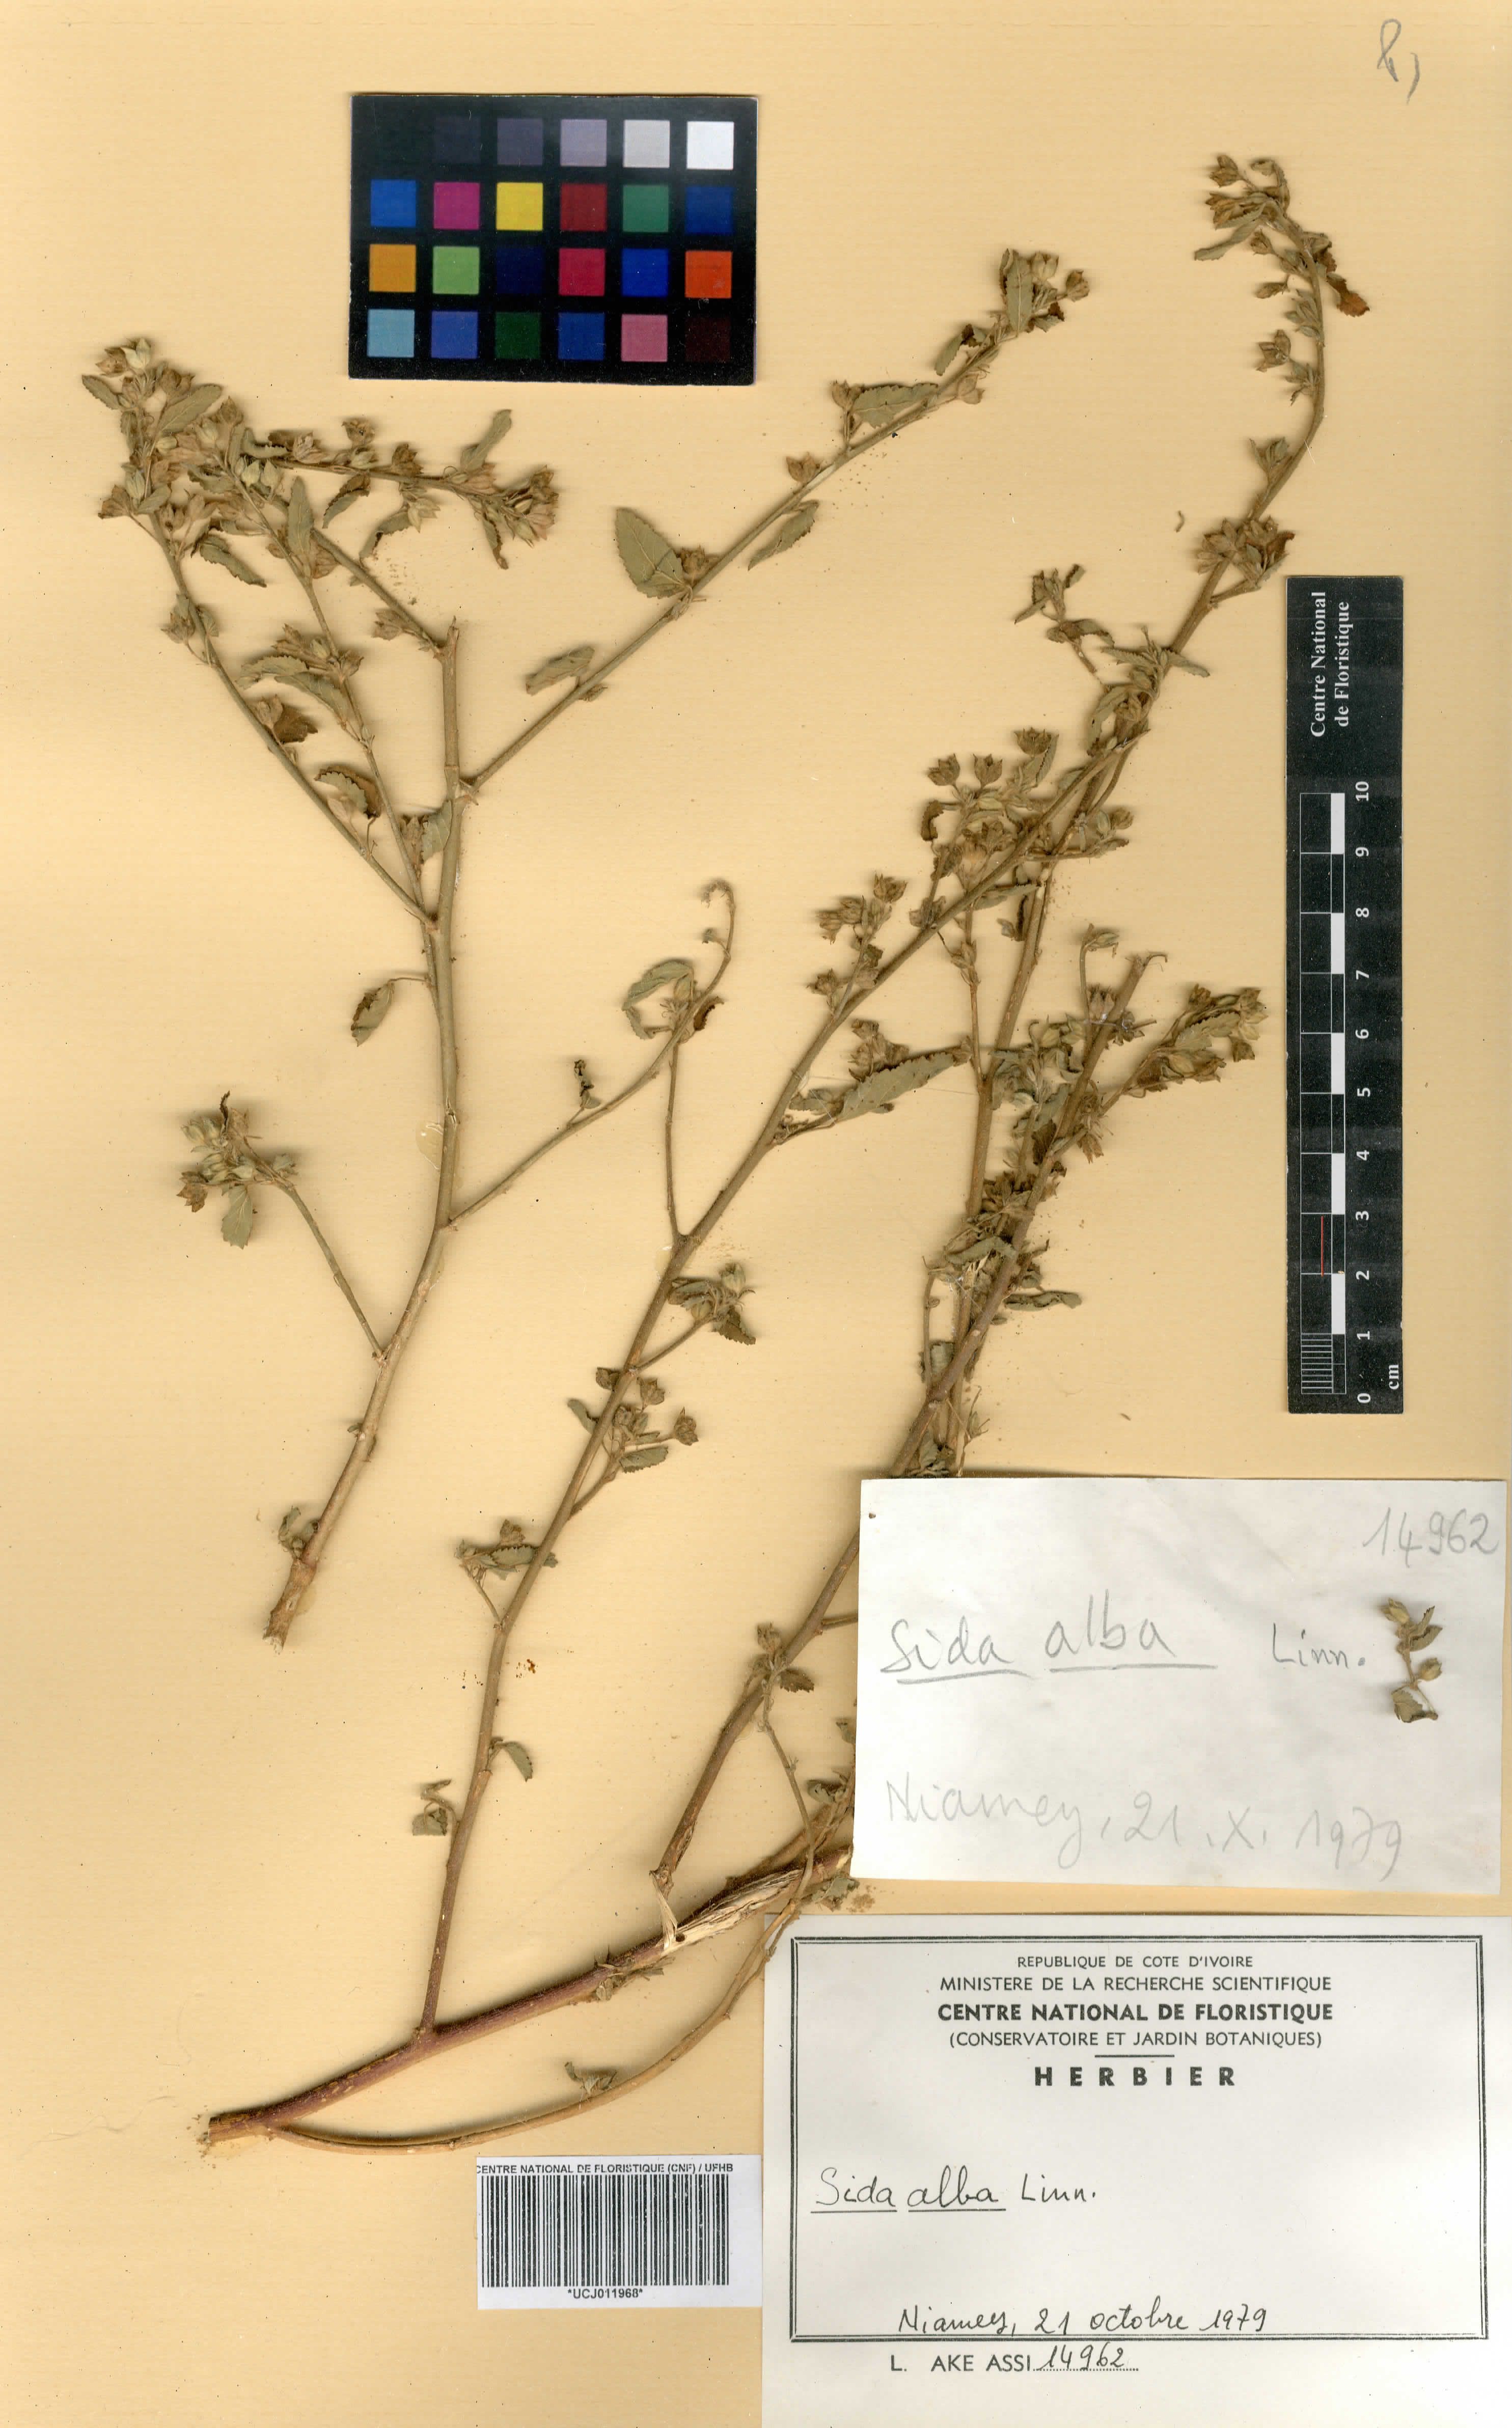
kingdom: Plantae
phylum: Tracheophyta
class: Magnoliopsida
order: Malvales
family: Malvaceae
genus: Sida
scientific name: Sida alba
